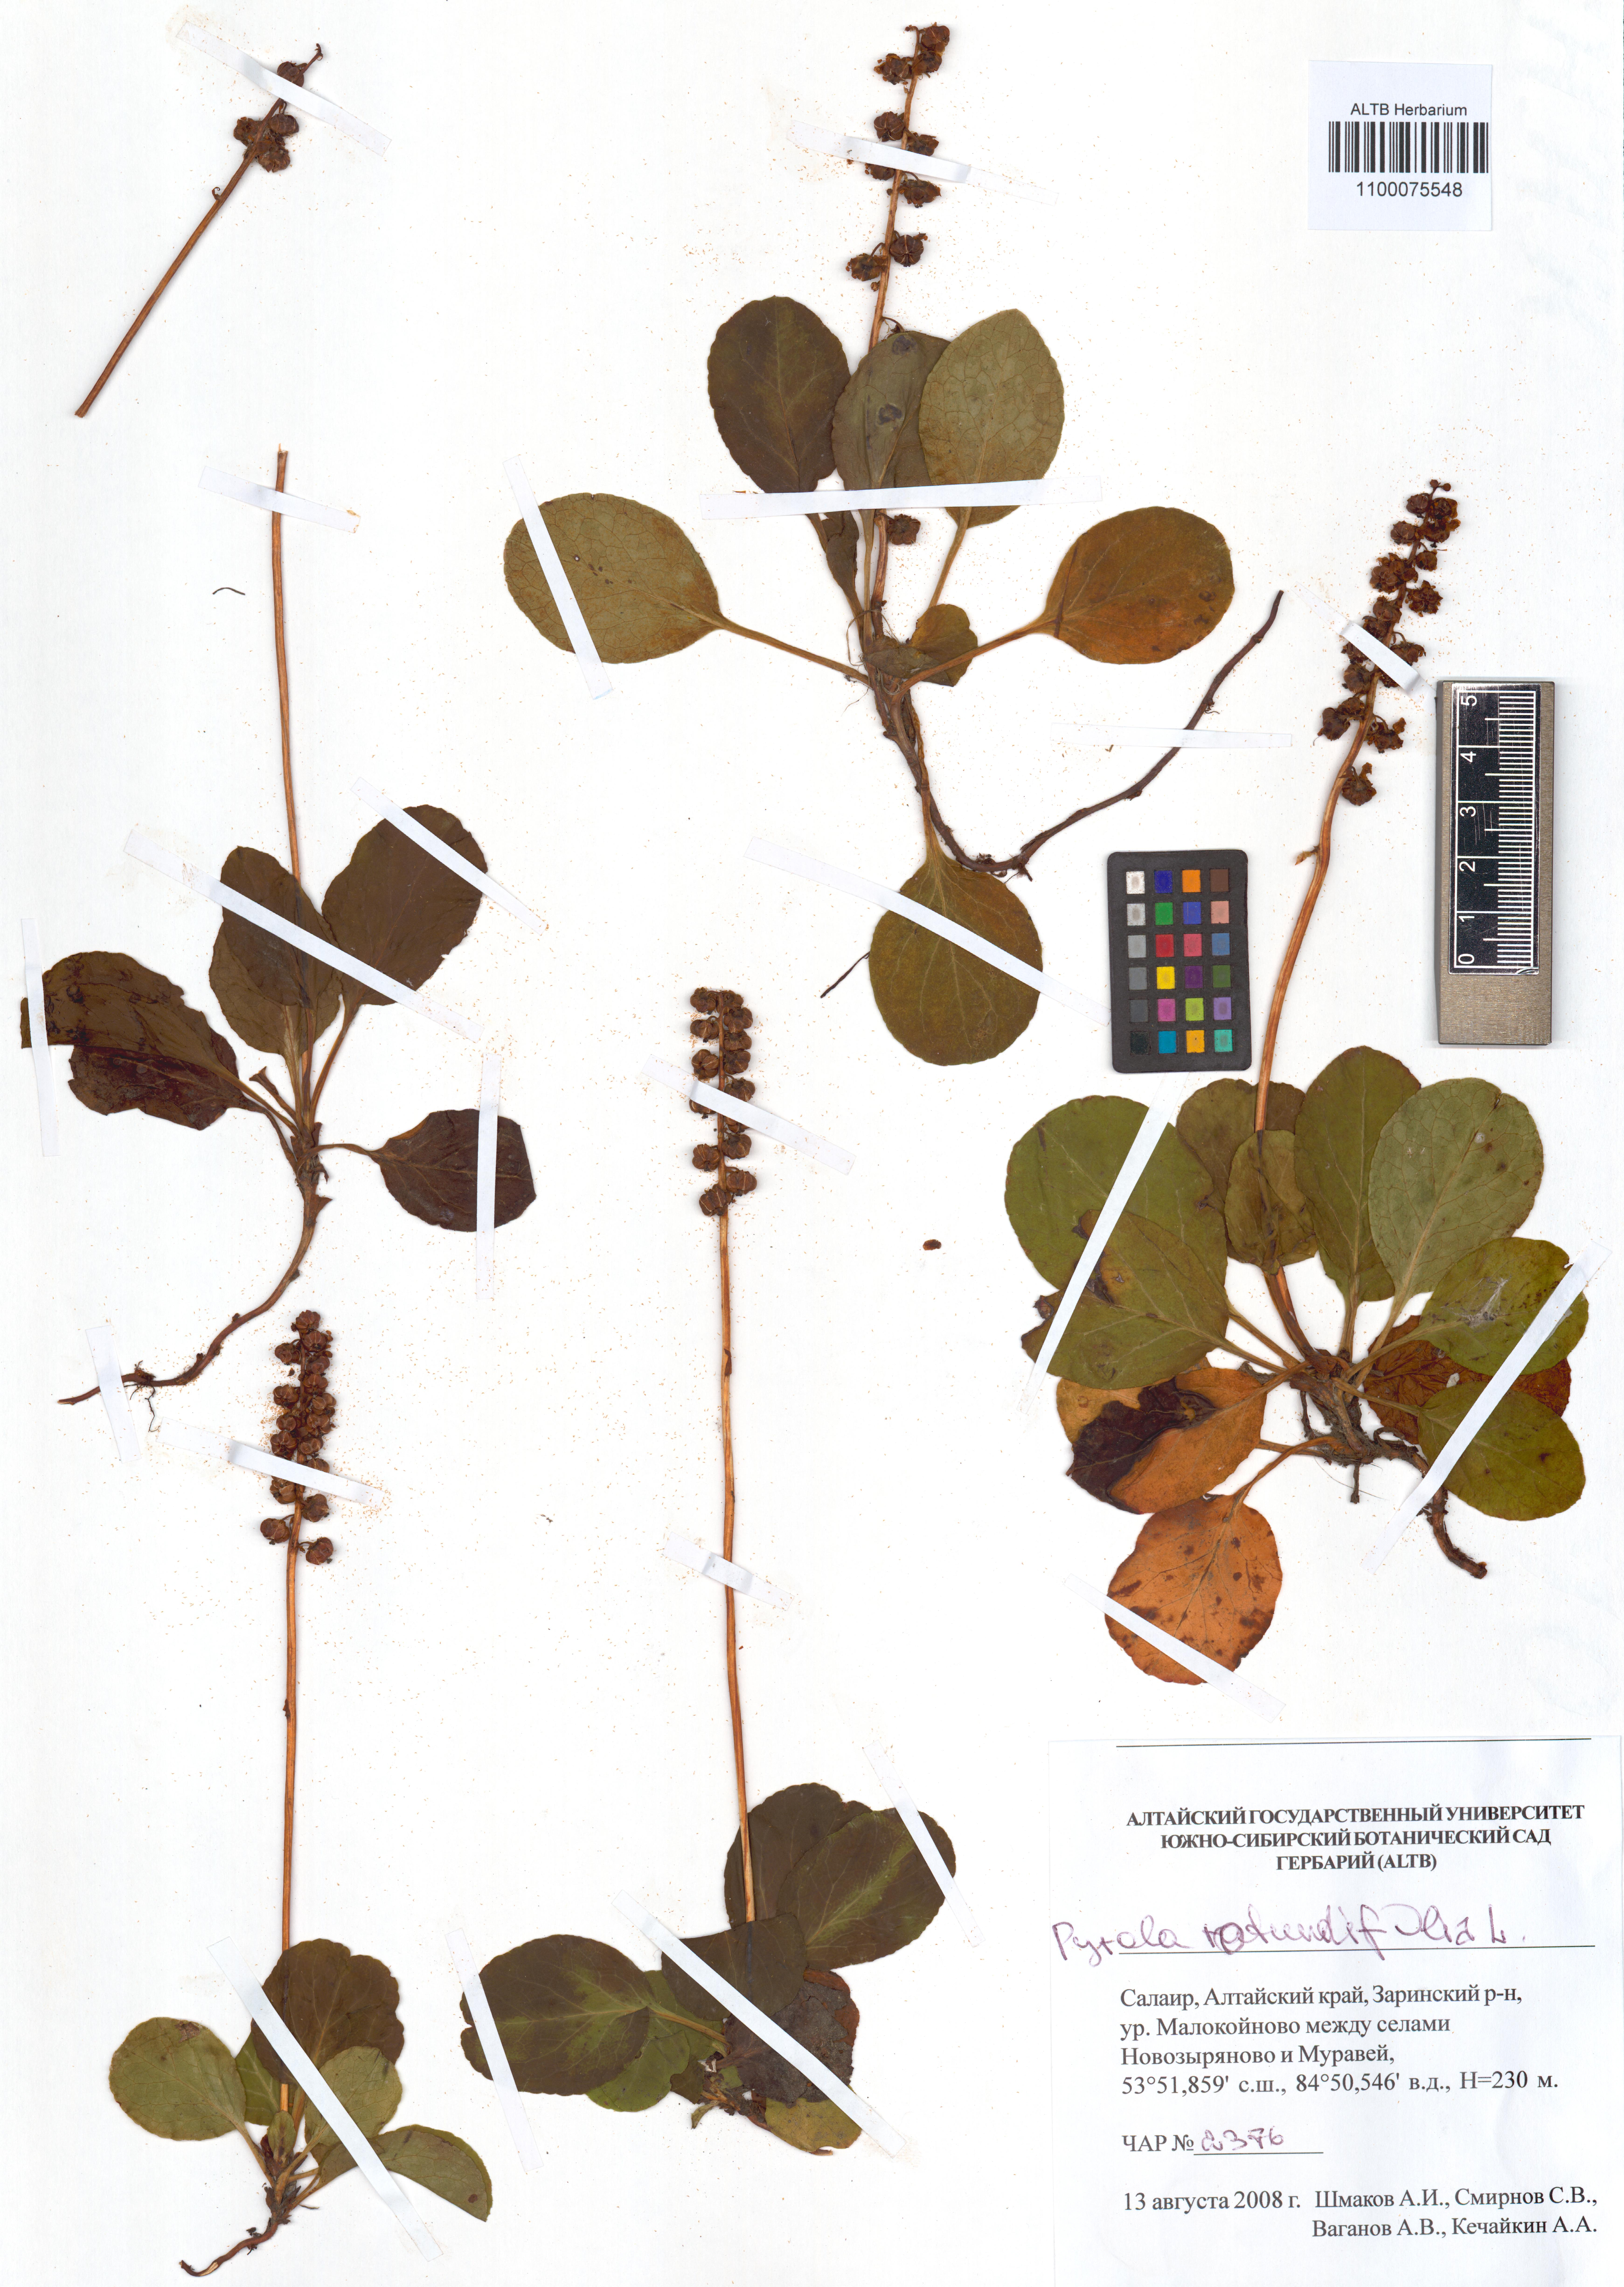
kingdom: Plantae
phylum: Tracheophyta
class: Magnoliopsida
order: Ericales
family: Ericaceae
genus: Pyrola
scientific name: Pyrola rotundifolia
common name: Round-leaved wintergreen
